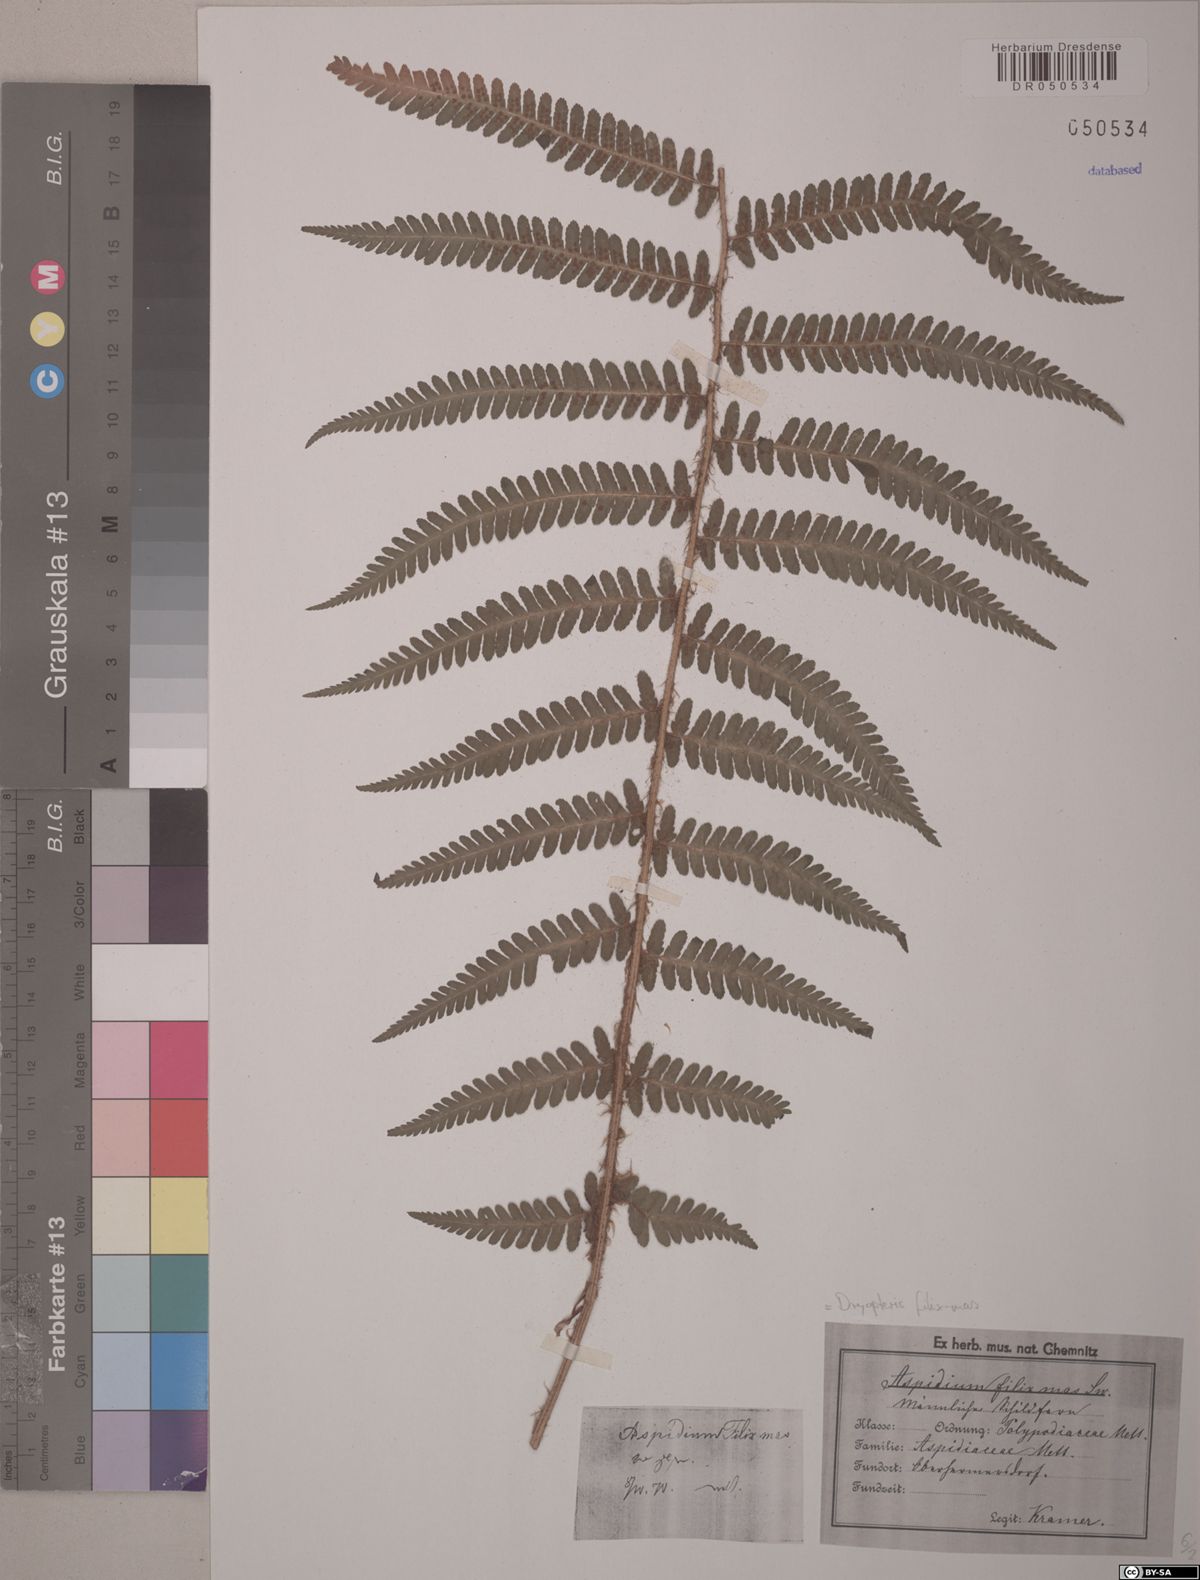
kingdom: Plantae
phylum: Tracheophyta
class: Polypodiopsida
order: Polypodiales
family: Dryopteridaceae
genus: Dryopteris
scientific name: Dryopteris filix-mas
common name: Male fern
